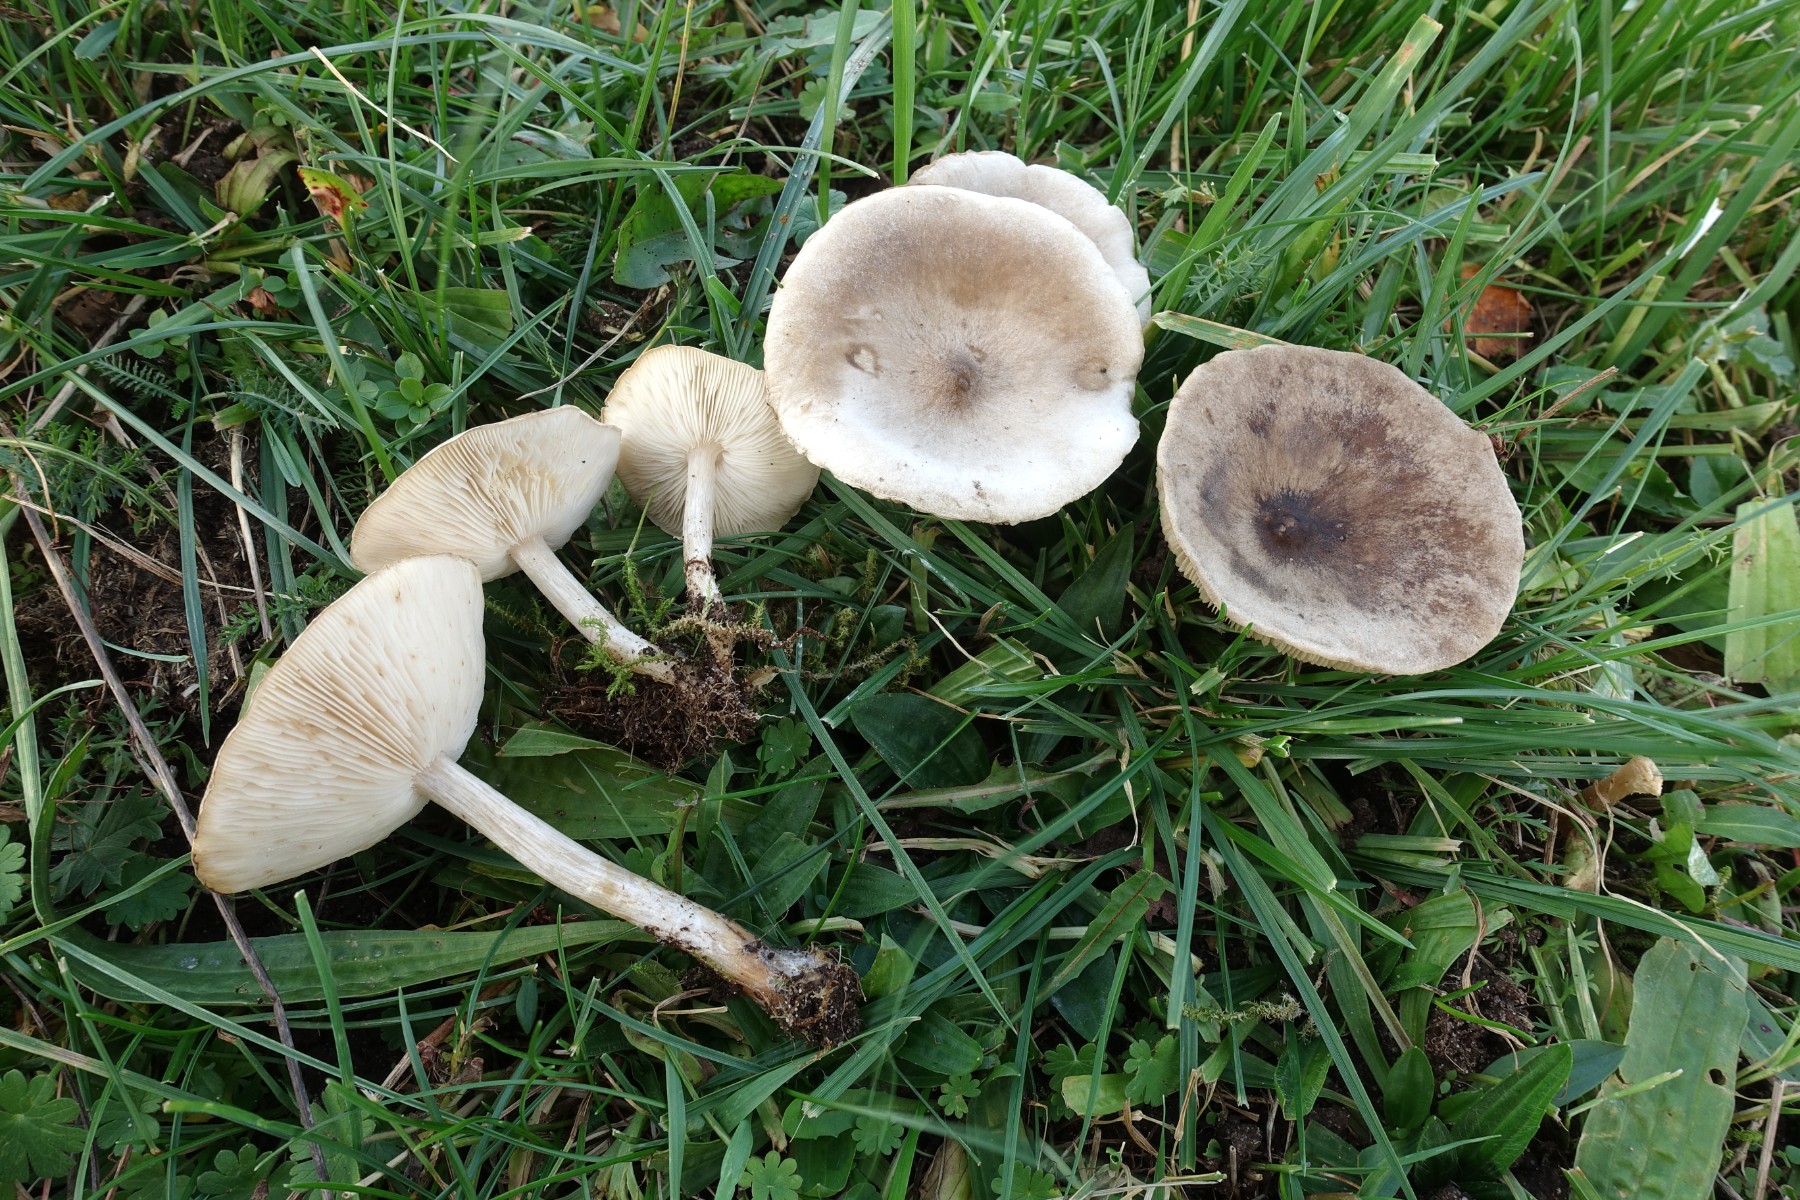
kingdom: Fungi
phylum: Basidiomycota
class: Agaricomycetes
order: Agaricales
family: Tricholomataceae
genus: Melanoleuca
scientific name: Melanoleuca exscissa
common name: gusten munkehat
